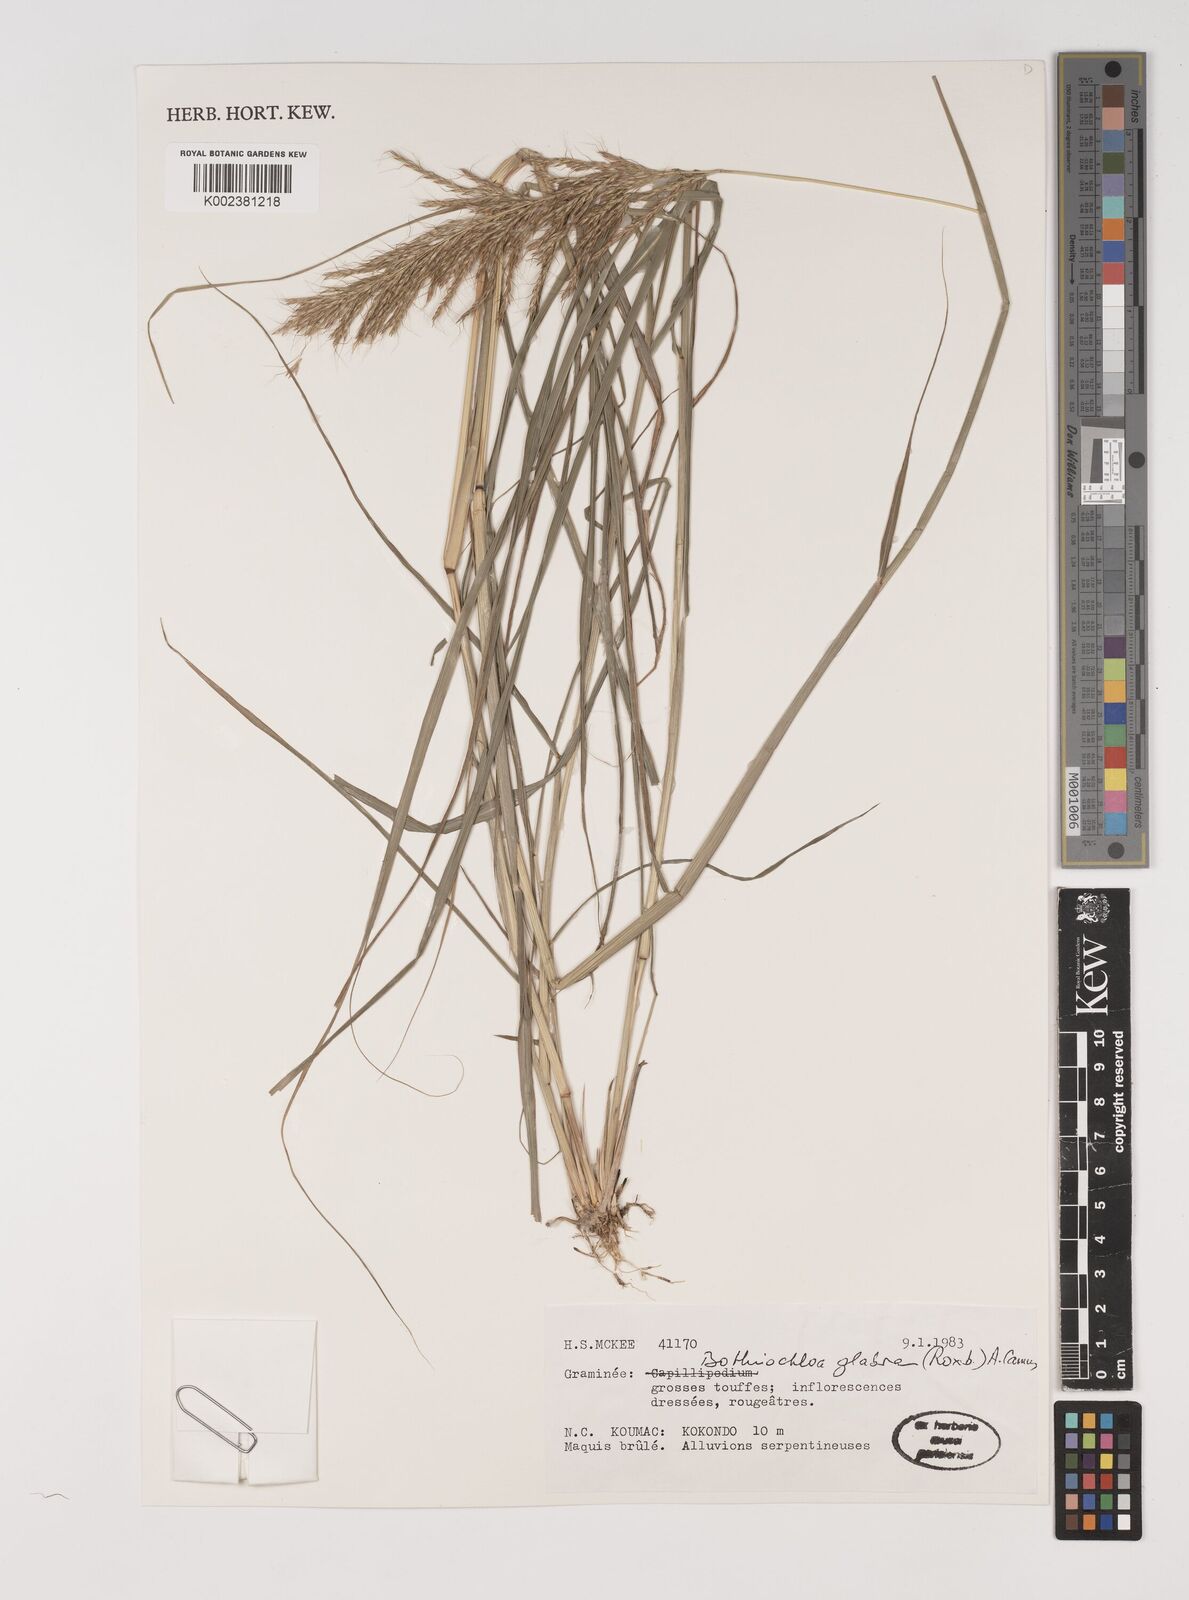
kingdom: Plantae
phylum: Tracheophyta
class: Liliopsida
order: Poales
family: Poaceae
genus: Bothriochloa
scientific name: Bothriochloa bladhii
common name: Caucasian bluestem
